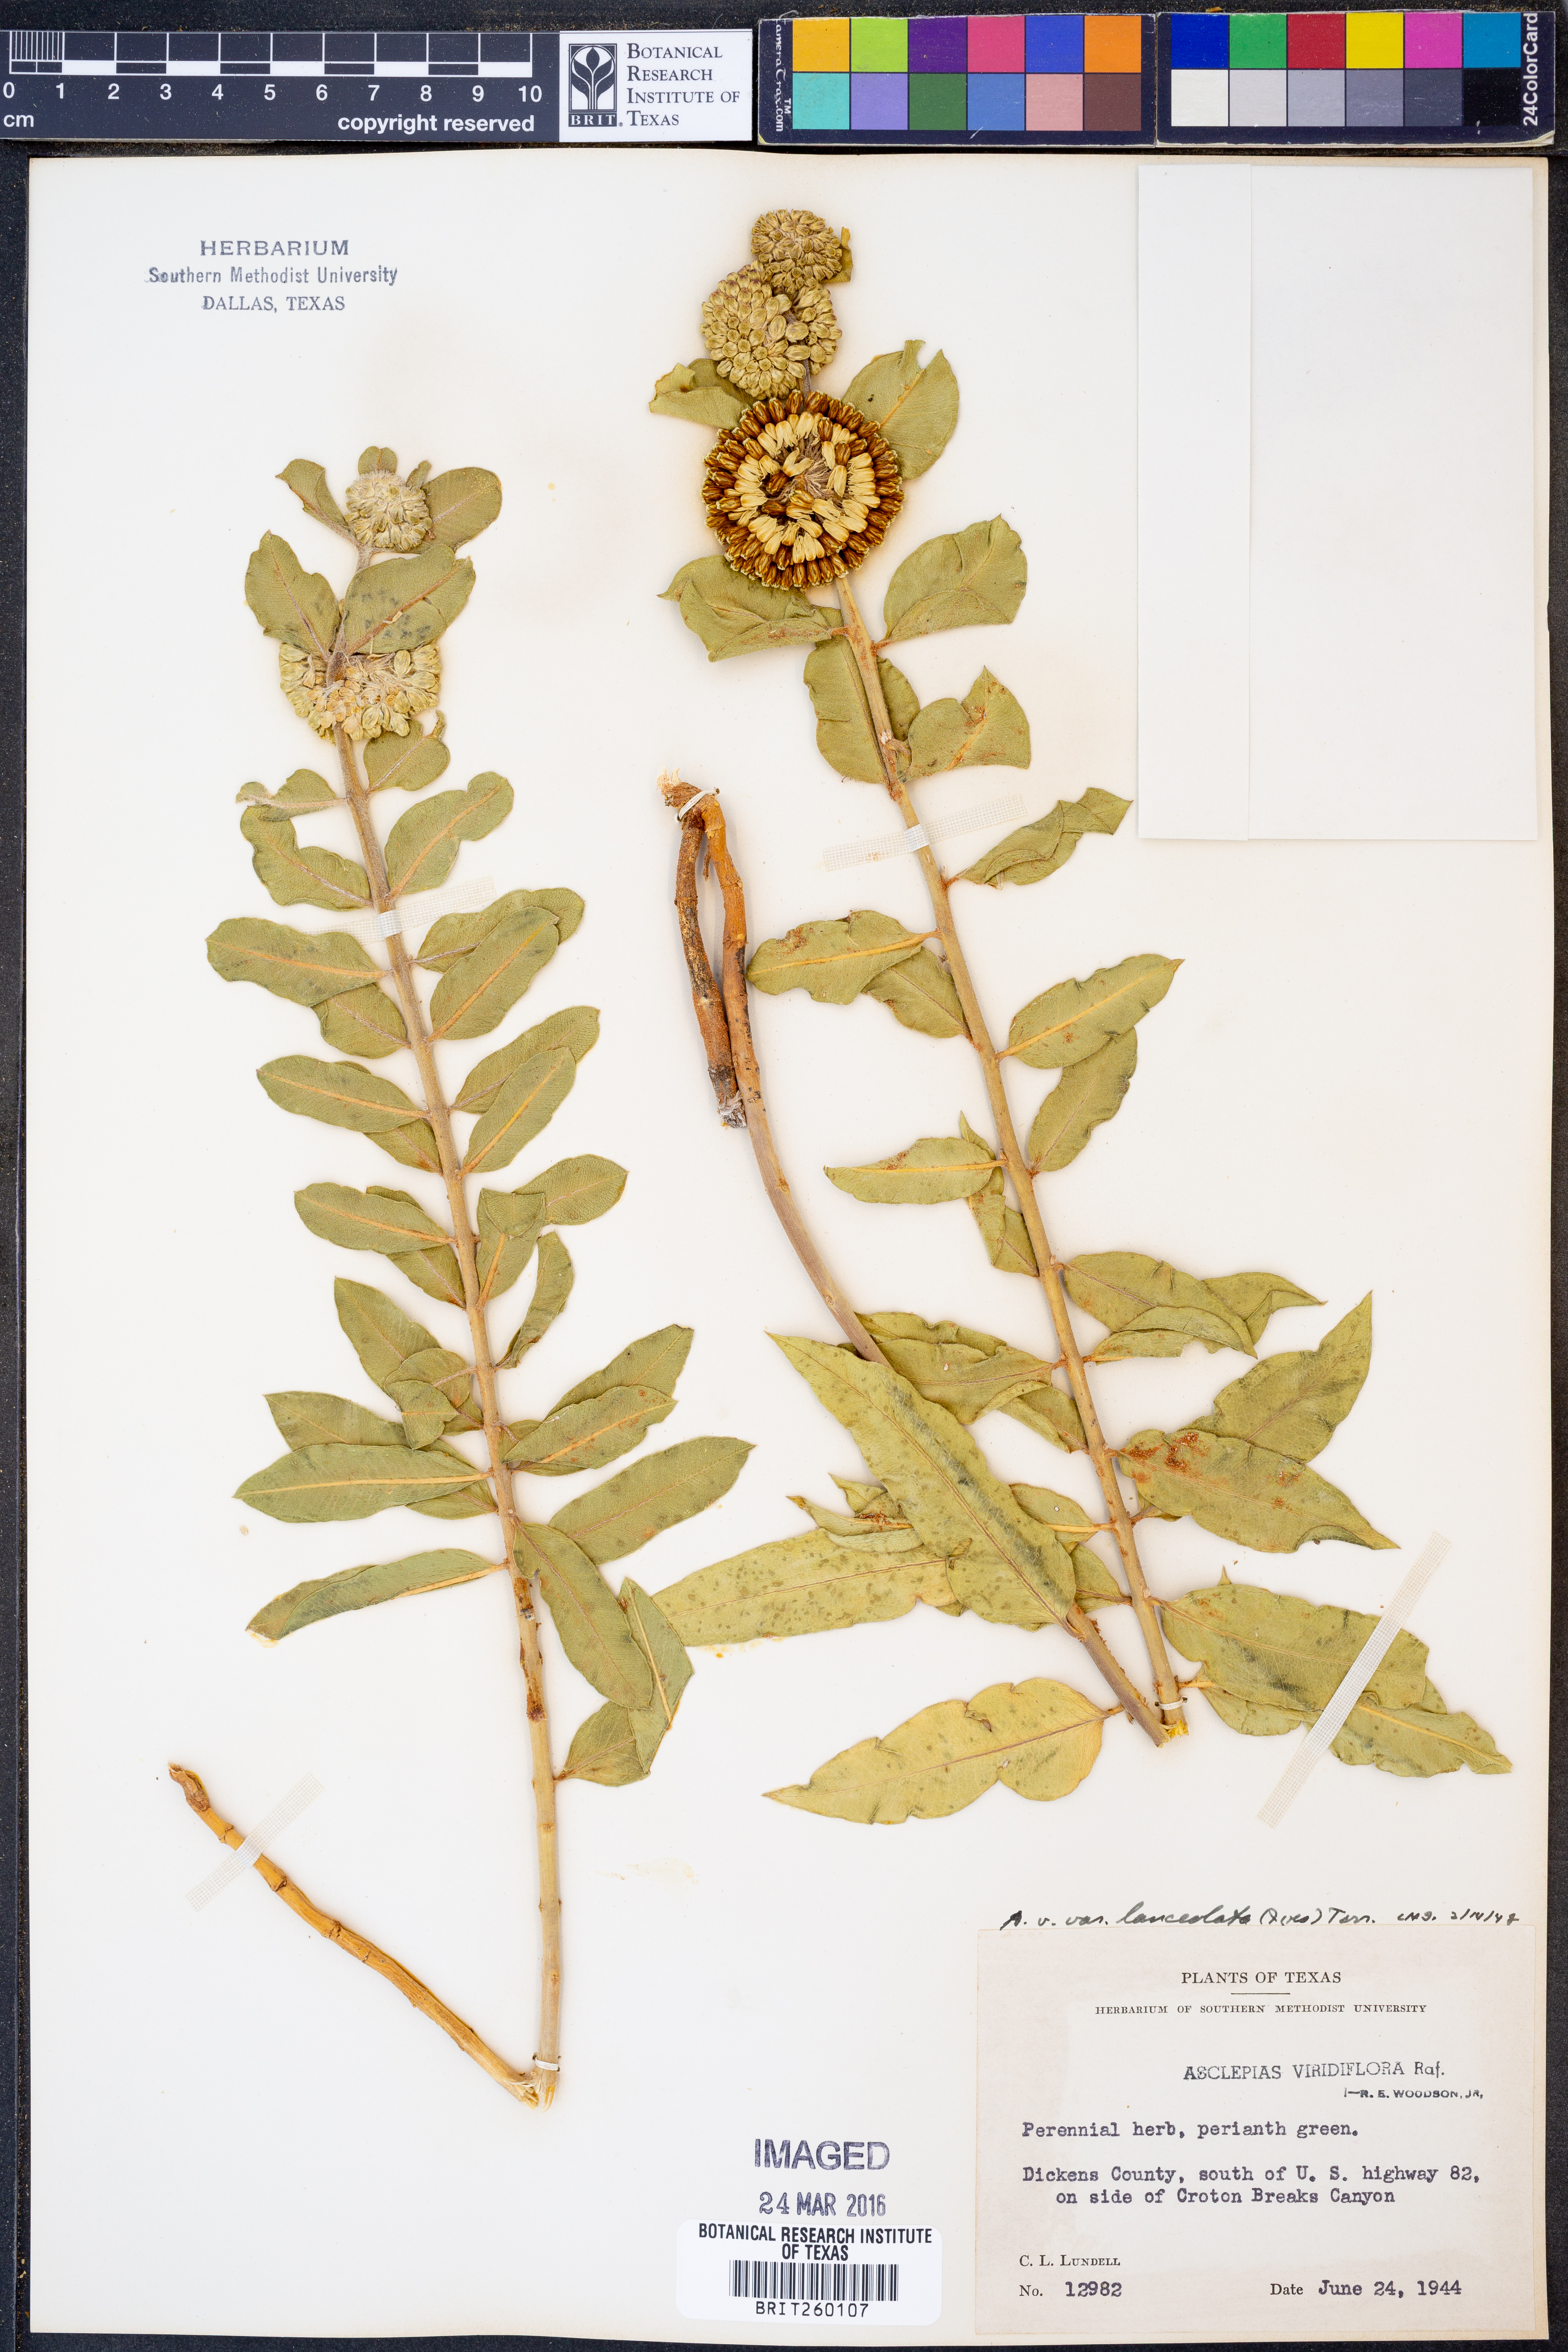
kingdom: Plantae
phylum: Tracheophyta
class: Magnoliopsida
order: Gentianales
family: Apocynaceae
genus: Asclepias
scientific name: Asclepias viridiflora
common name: Green comet milkweed
